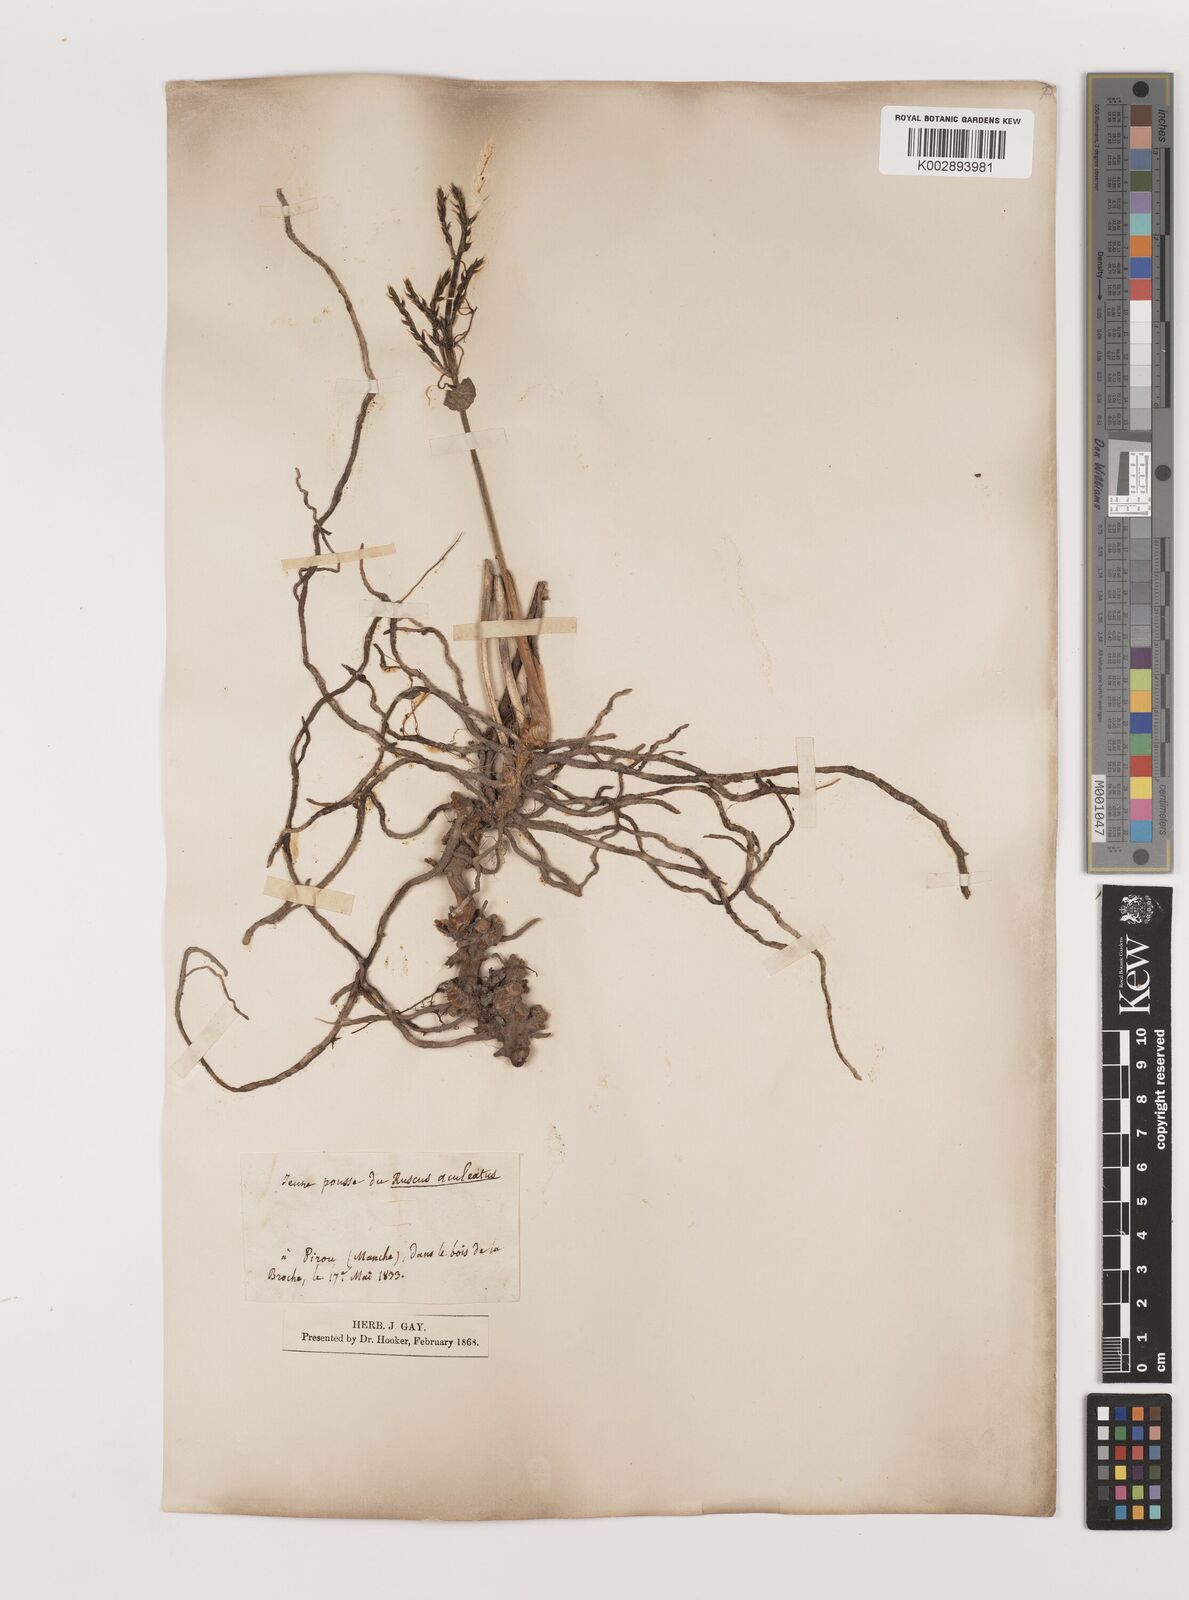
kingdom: Plantae
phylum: Tracheophyta
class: Liliopsida
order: Asparagales
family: Asparagaceae
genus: Ruscus
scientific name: Ruscus aculeatus
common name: Butcher's-broom
